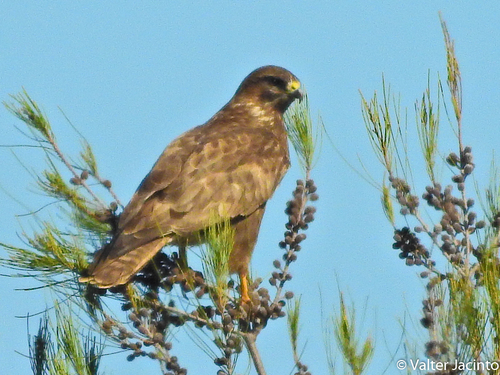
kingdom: Animalia
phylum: Chordata
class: Aves
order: Accipitriformes
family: Accipitridae
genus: Buteo
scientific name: Buteo buteo
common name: Common buzzard
